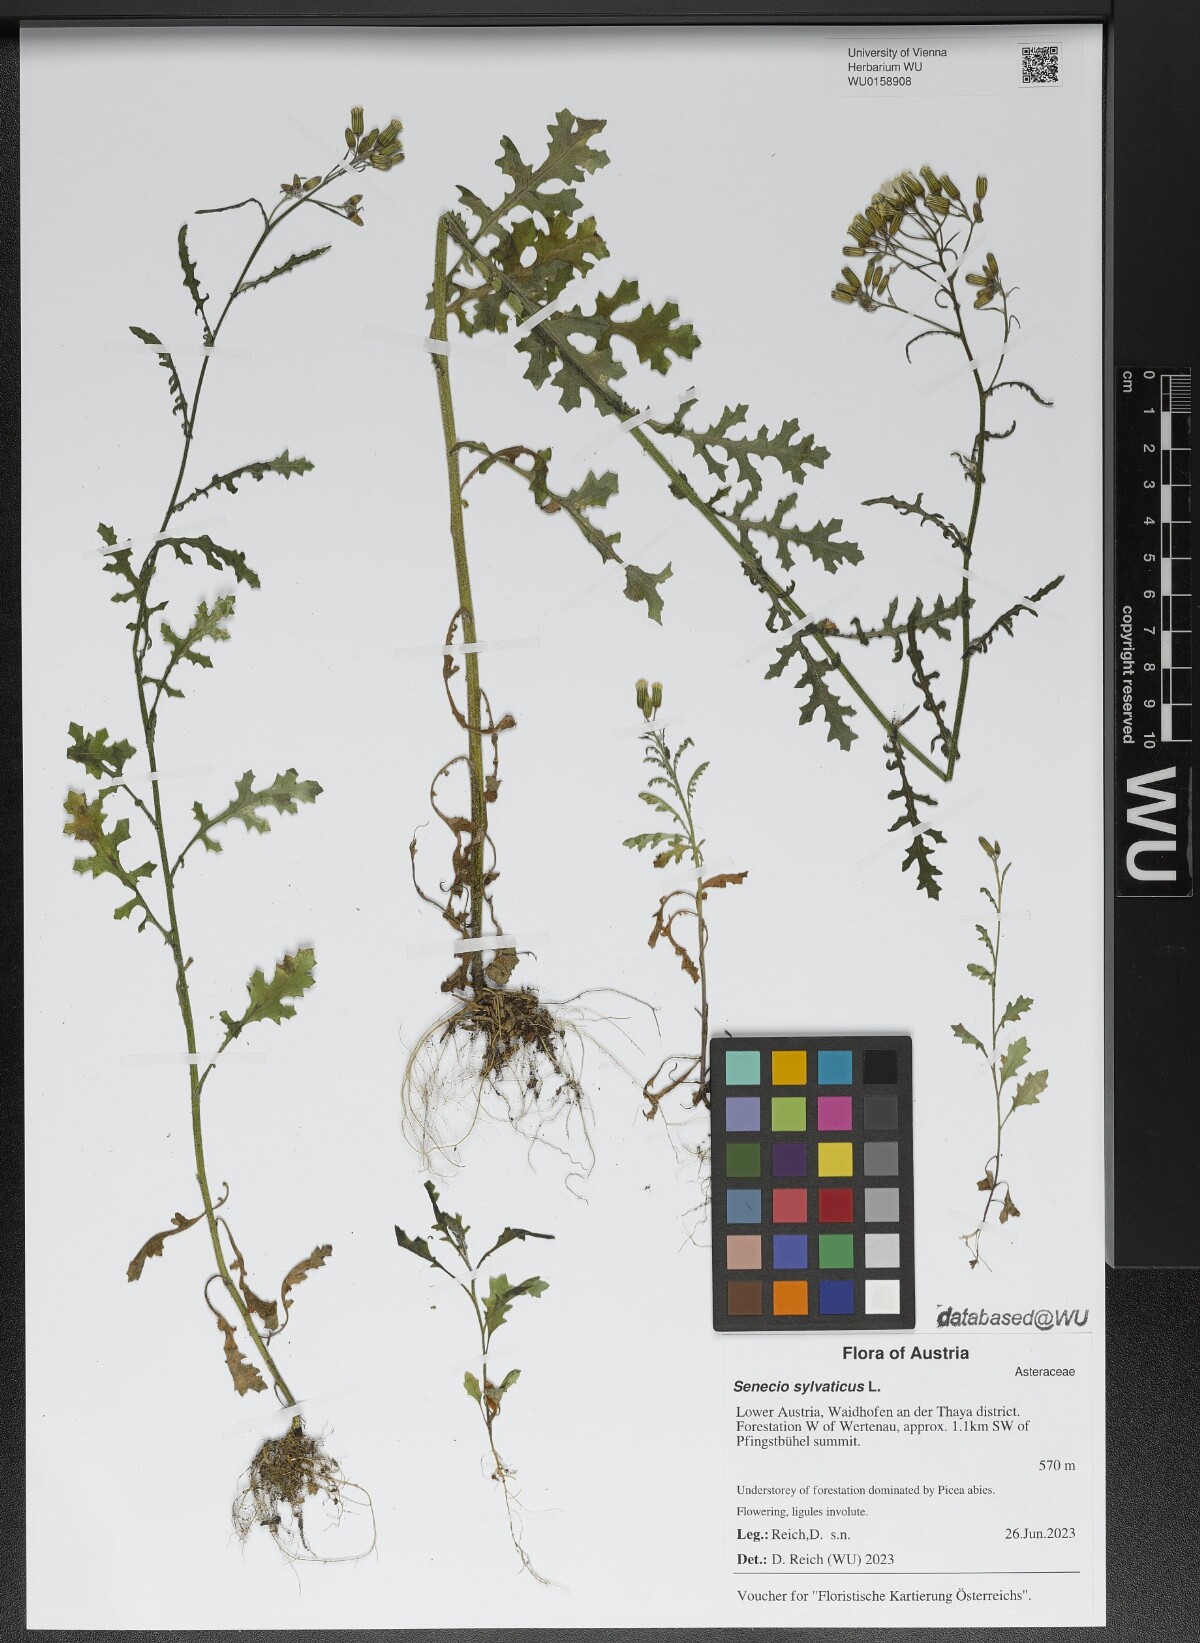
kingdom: Plantae
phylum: Tracheophyta
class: Magnoliopsida
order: Asterales
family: Asteraceae
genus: Senecio
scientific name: Senecio sylvaticus
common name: Woodland ragwort
